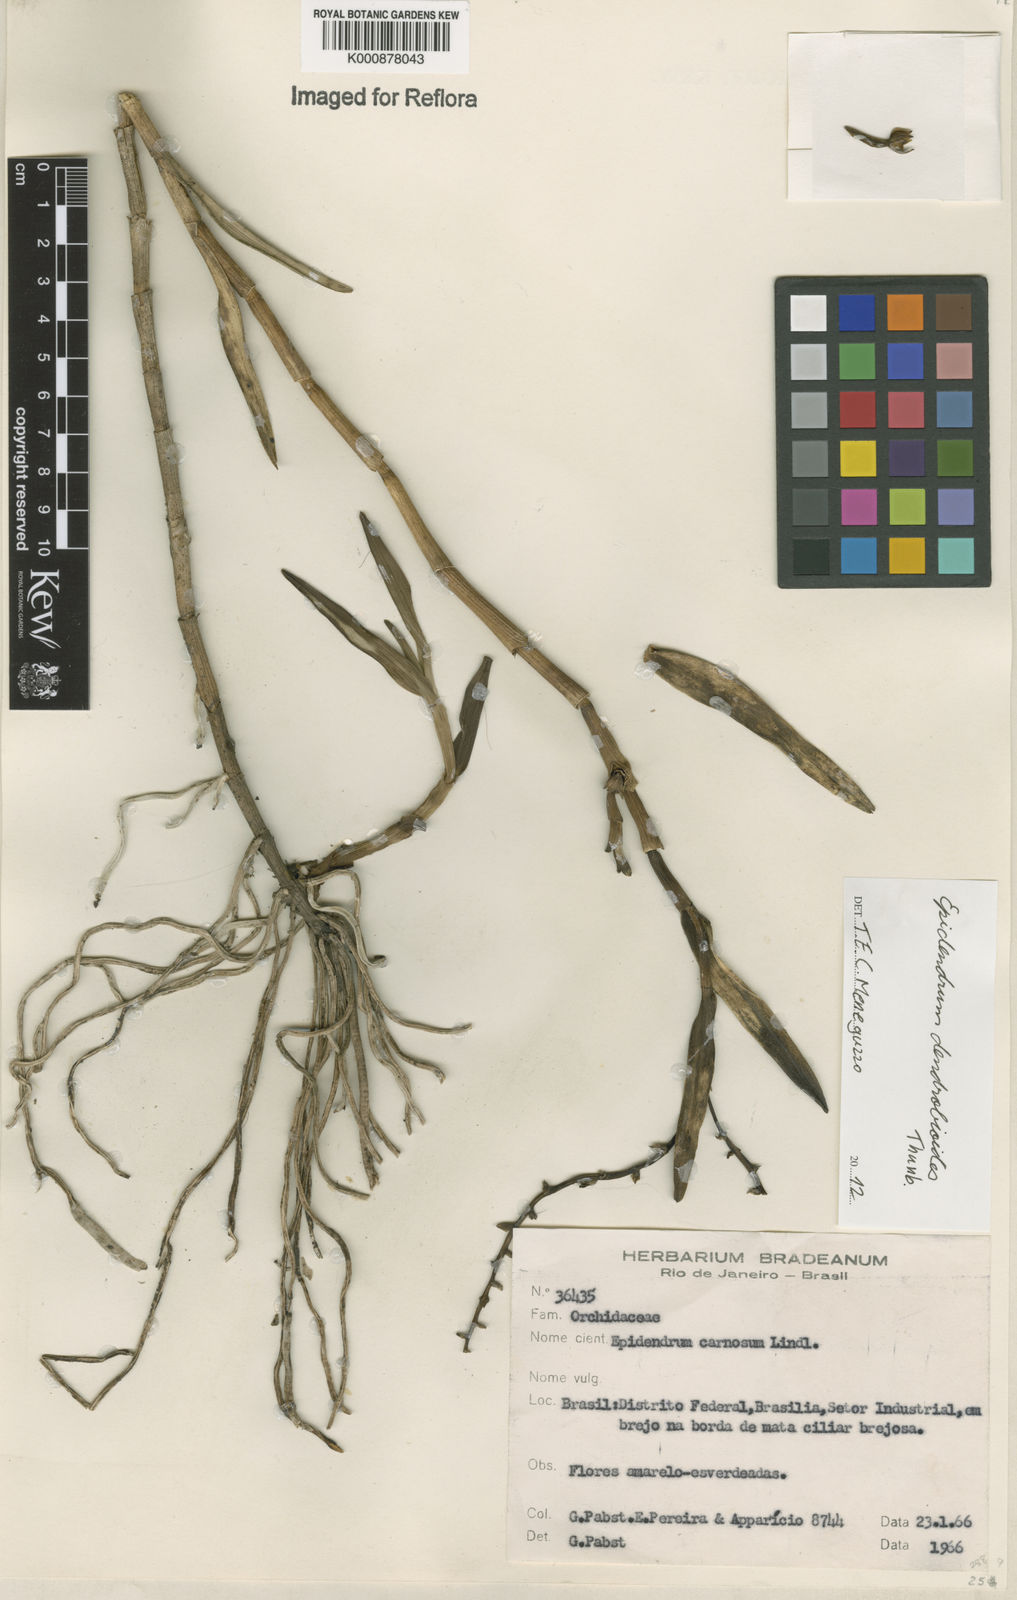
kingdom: Plantae
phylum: Tracheophyta
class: Liliopsida
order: Asparagales
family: Orchidaceae
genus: Epidendrum
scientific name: Epidendrum dendrobioides
